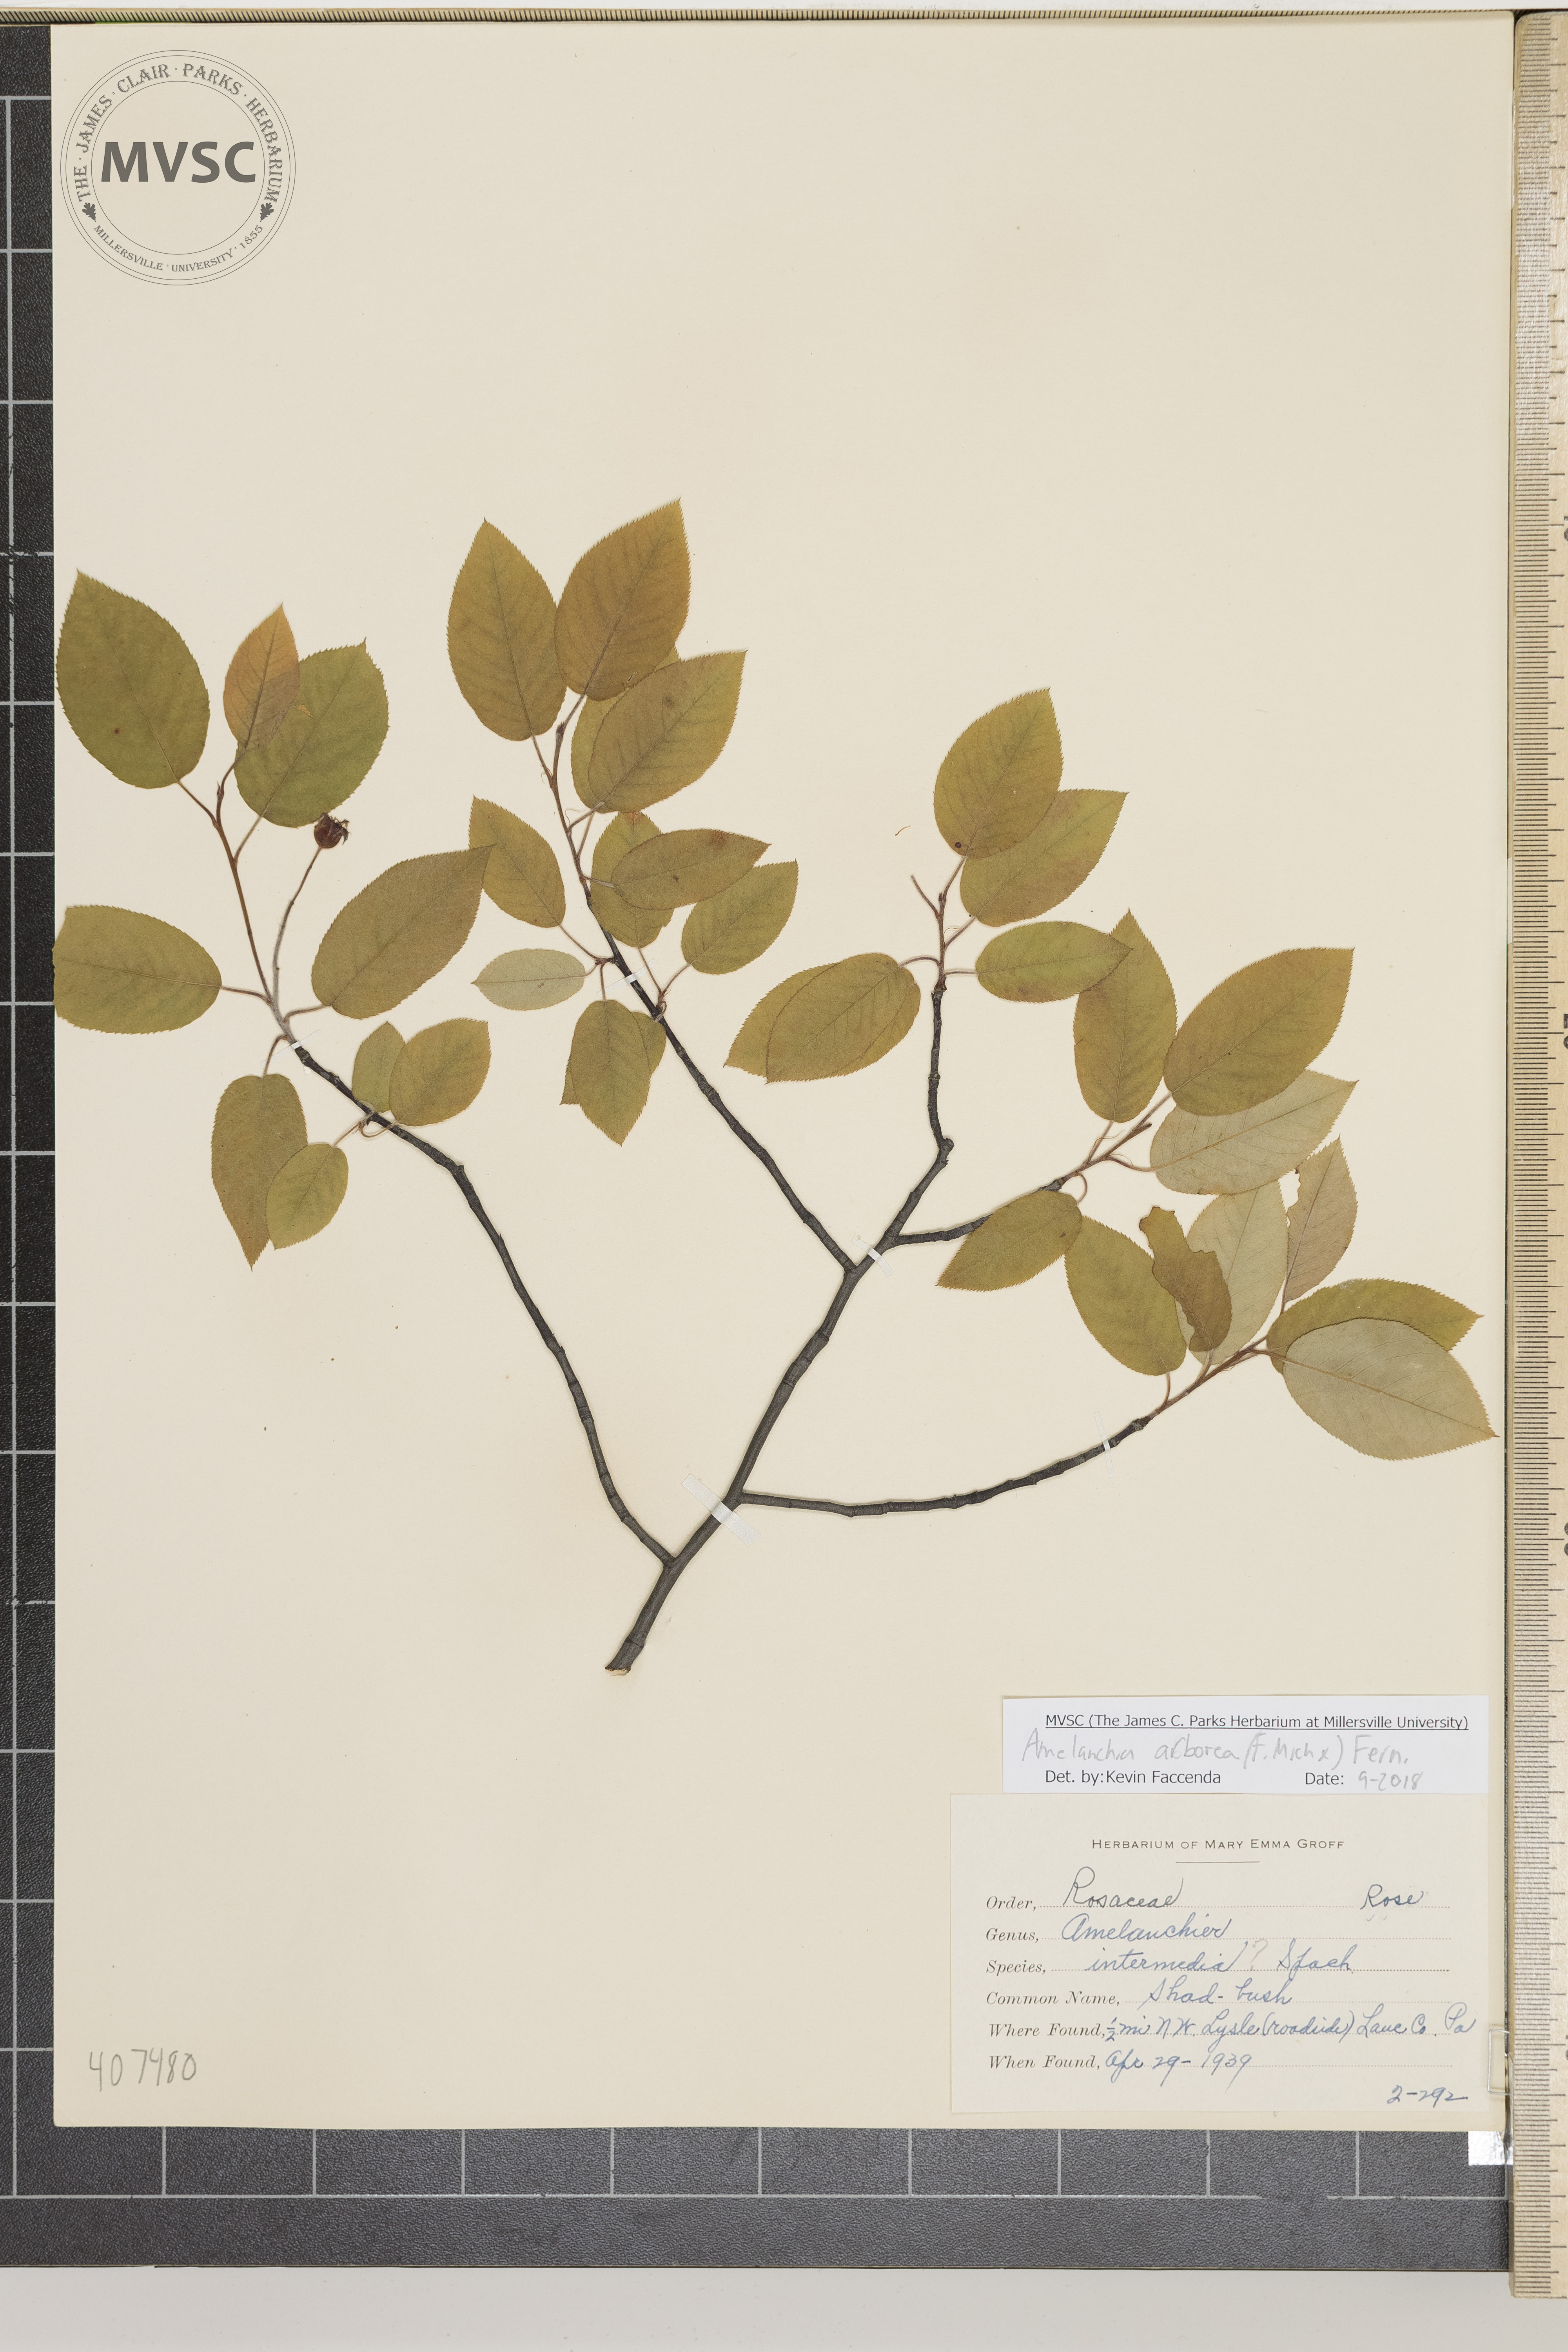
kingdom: Plantae
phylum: Tracheophyta
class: Magnoliopsida
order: Rosales
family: Rosaceae
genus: Amelanchier
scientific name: Amelanchier arborea
